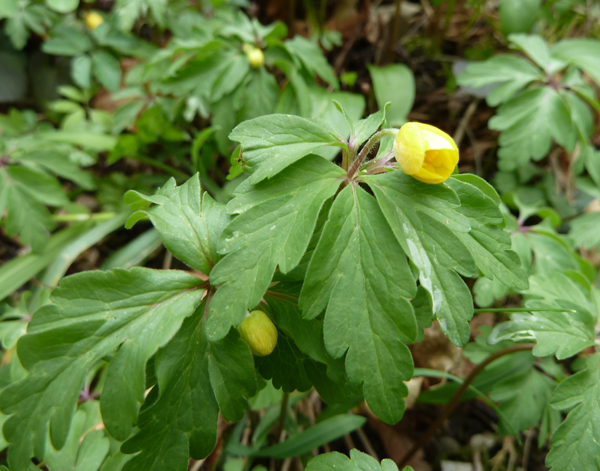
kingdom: Plantae
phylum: Tracheophyta
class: Magnoliopsida
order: Ranunculales
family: Ranunculaceae
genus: Anemone
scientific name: Anemone ranunculoides
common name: Yellow anemone
